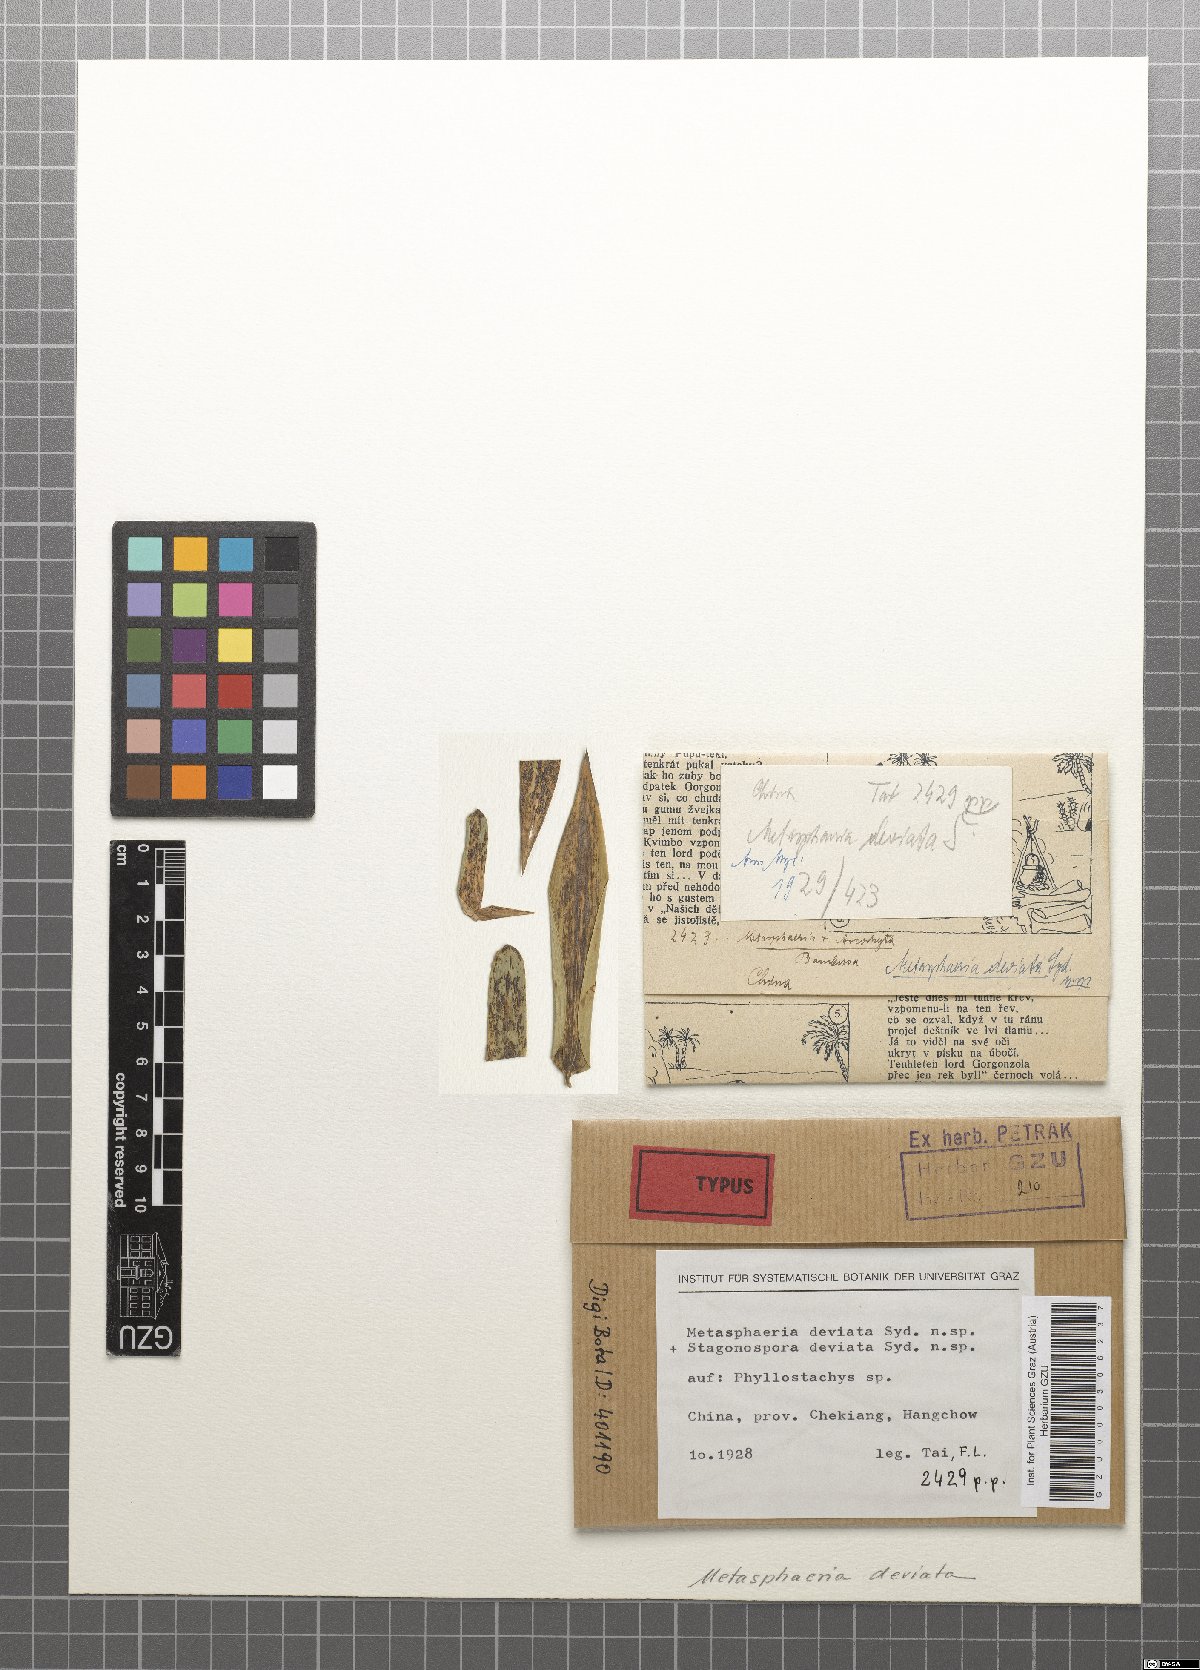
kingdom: Fungi
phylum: Ascomycota
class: Dothideomycetes
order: Dothideales
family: Saccotheciaceae
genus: Metasphaeria
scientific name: Metasphaeria deviata
